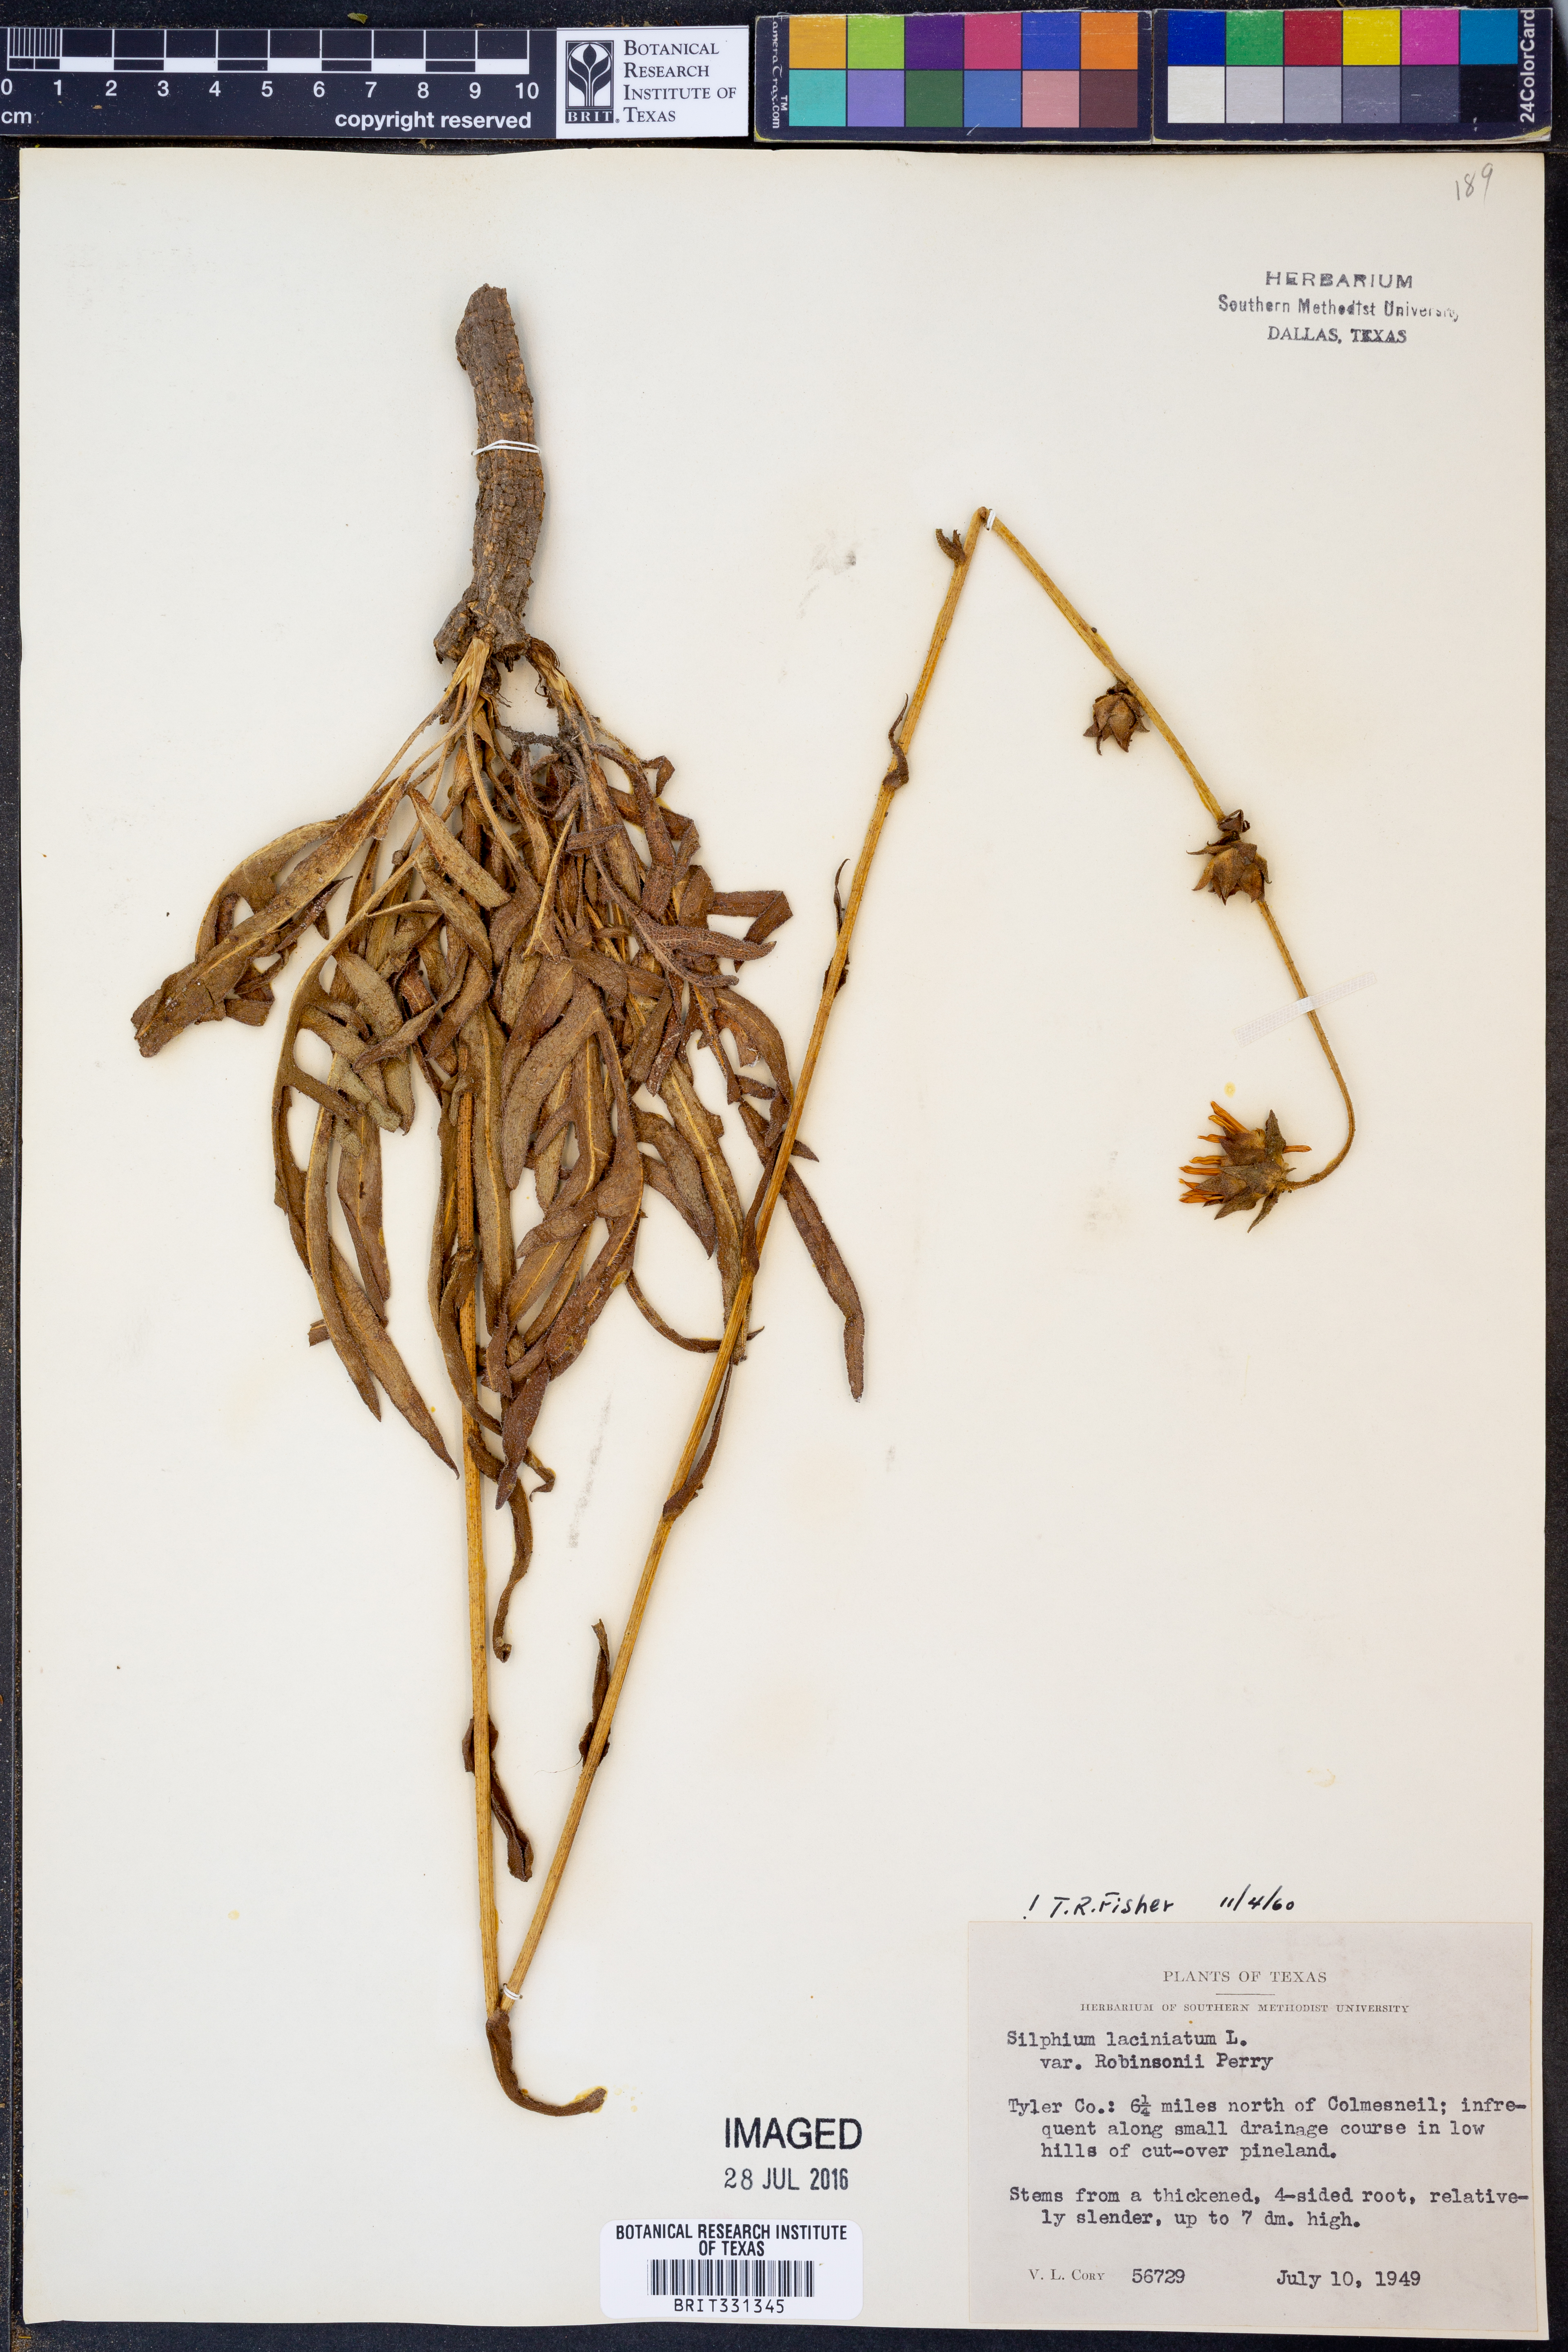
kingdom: Plantae
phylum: Tracheophyta
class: Magnoliopsida
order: Asterales
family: Asteraceae
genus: Silphium
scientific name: Silphium laciniatum
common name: Polarplant
